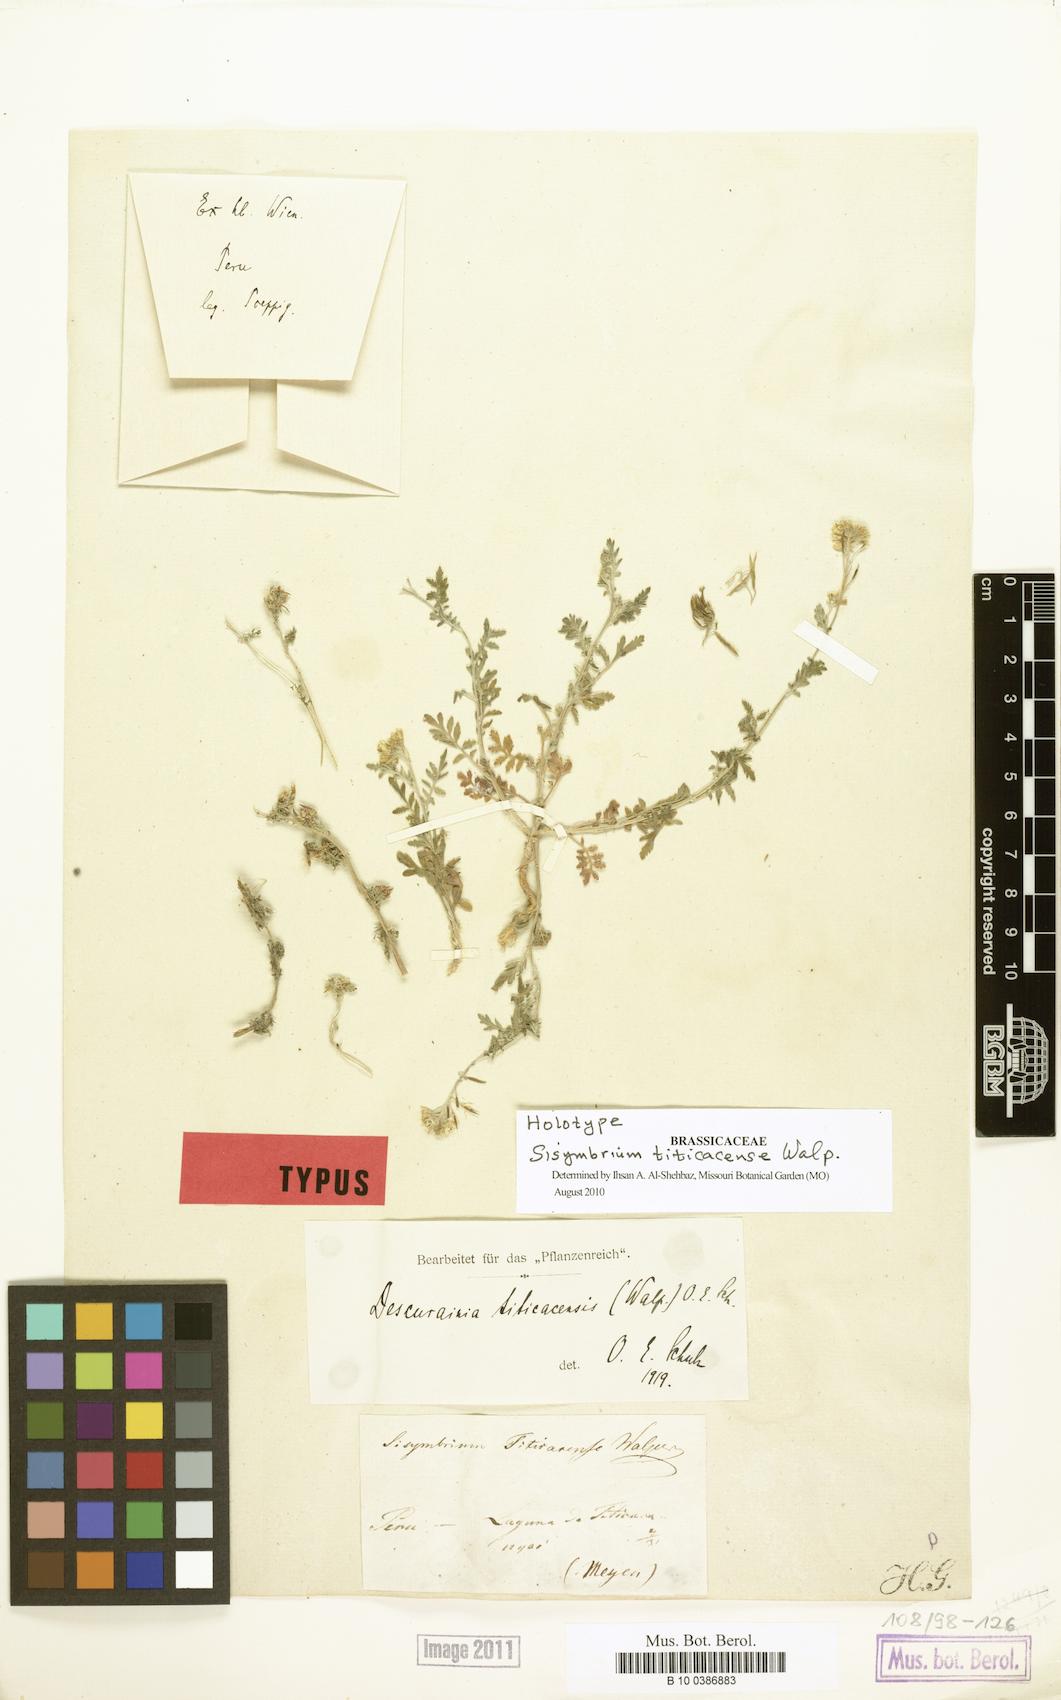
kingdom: Plantae
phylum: Tracheophyta
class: Magnoliopsida
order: Brassicales
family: Brassicaceae
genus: Descurainia
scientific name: Descurainia myriophylla
